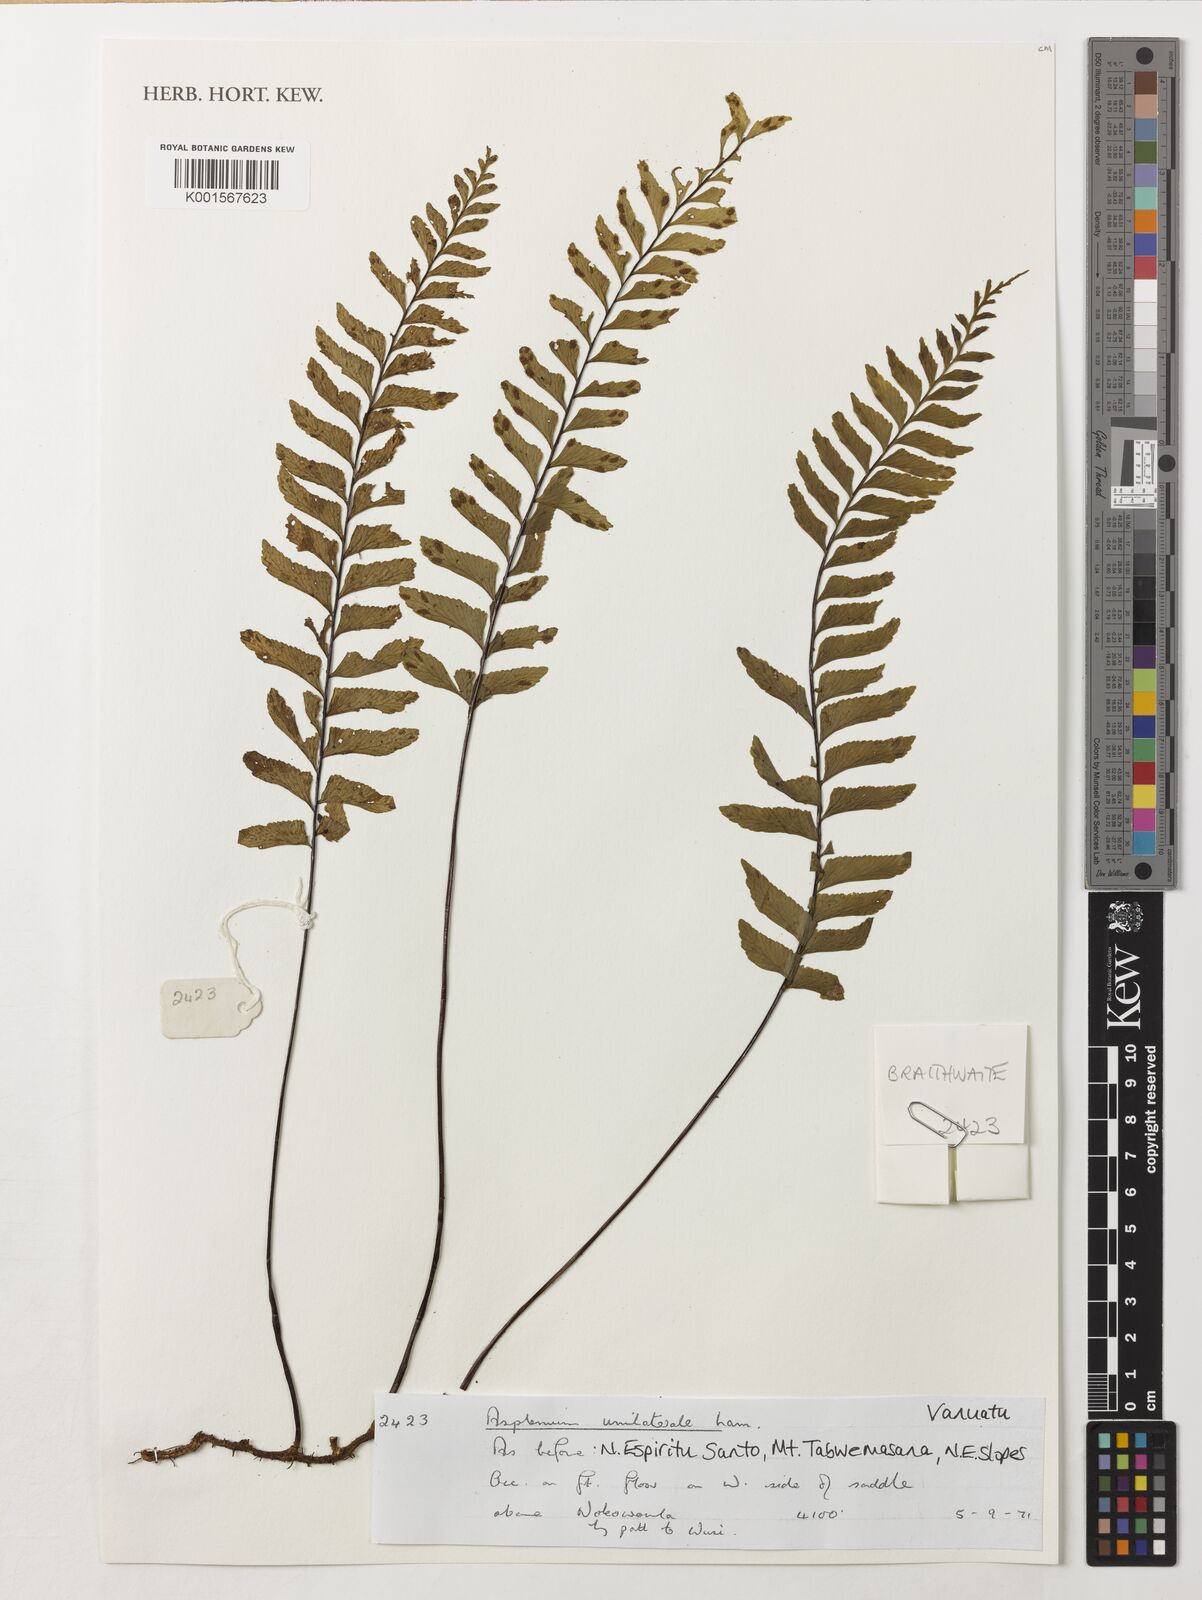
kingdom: Plantae
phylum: Tracheophyta
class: Polypodiopsida
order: Polypodiales
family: Aspleniaceae
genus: Hymenasplenium
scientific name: Hymenasplenium unilaterale
